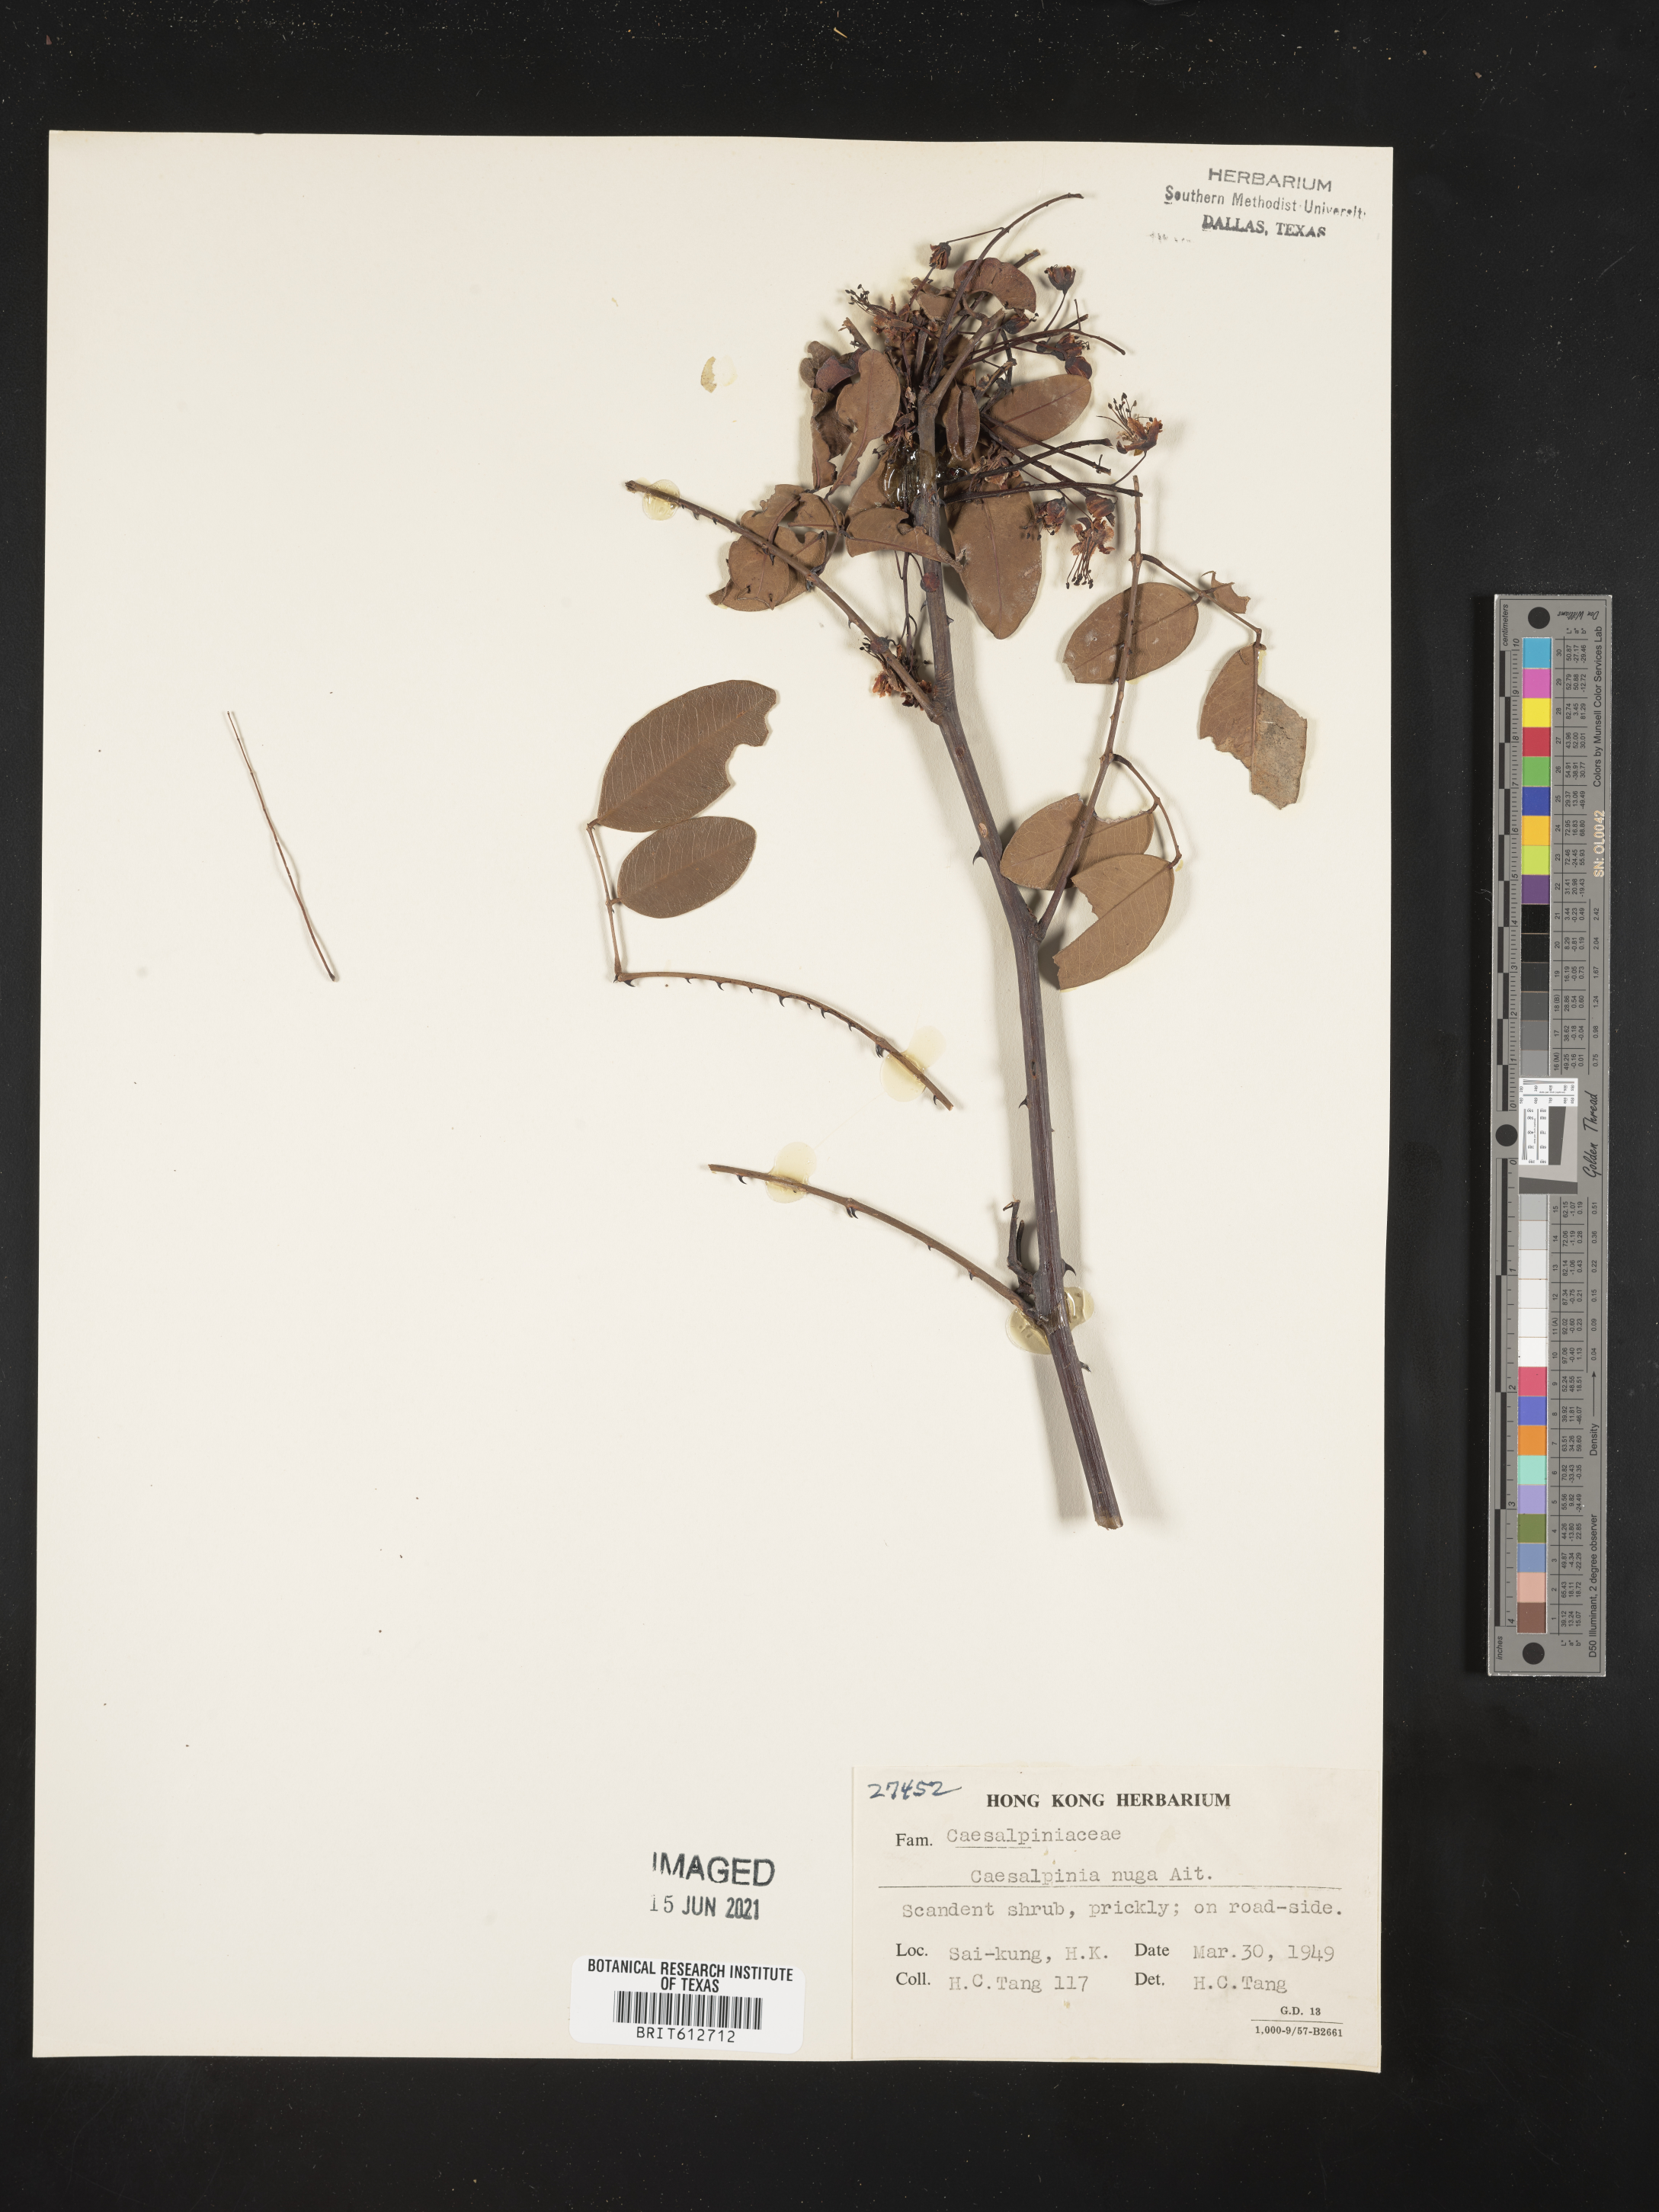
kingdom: Plantae
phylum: Tracheophyta
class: Magnoliopsida
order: Fabales
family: Fabaceae
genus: Caesalpinia
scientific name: Caesalpinia Ticanto crista
